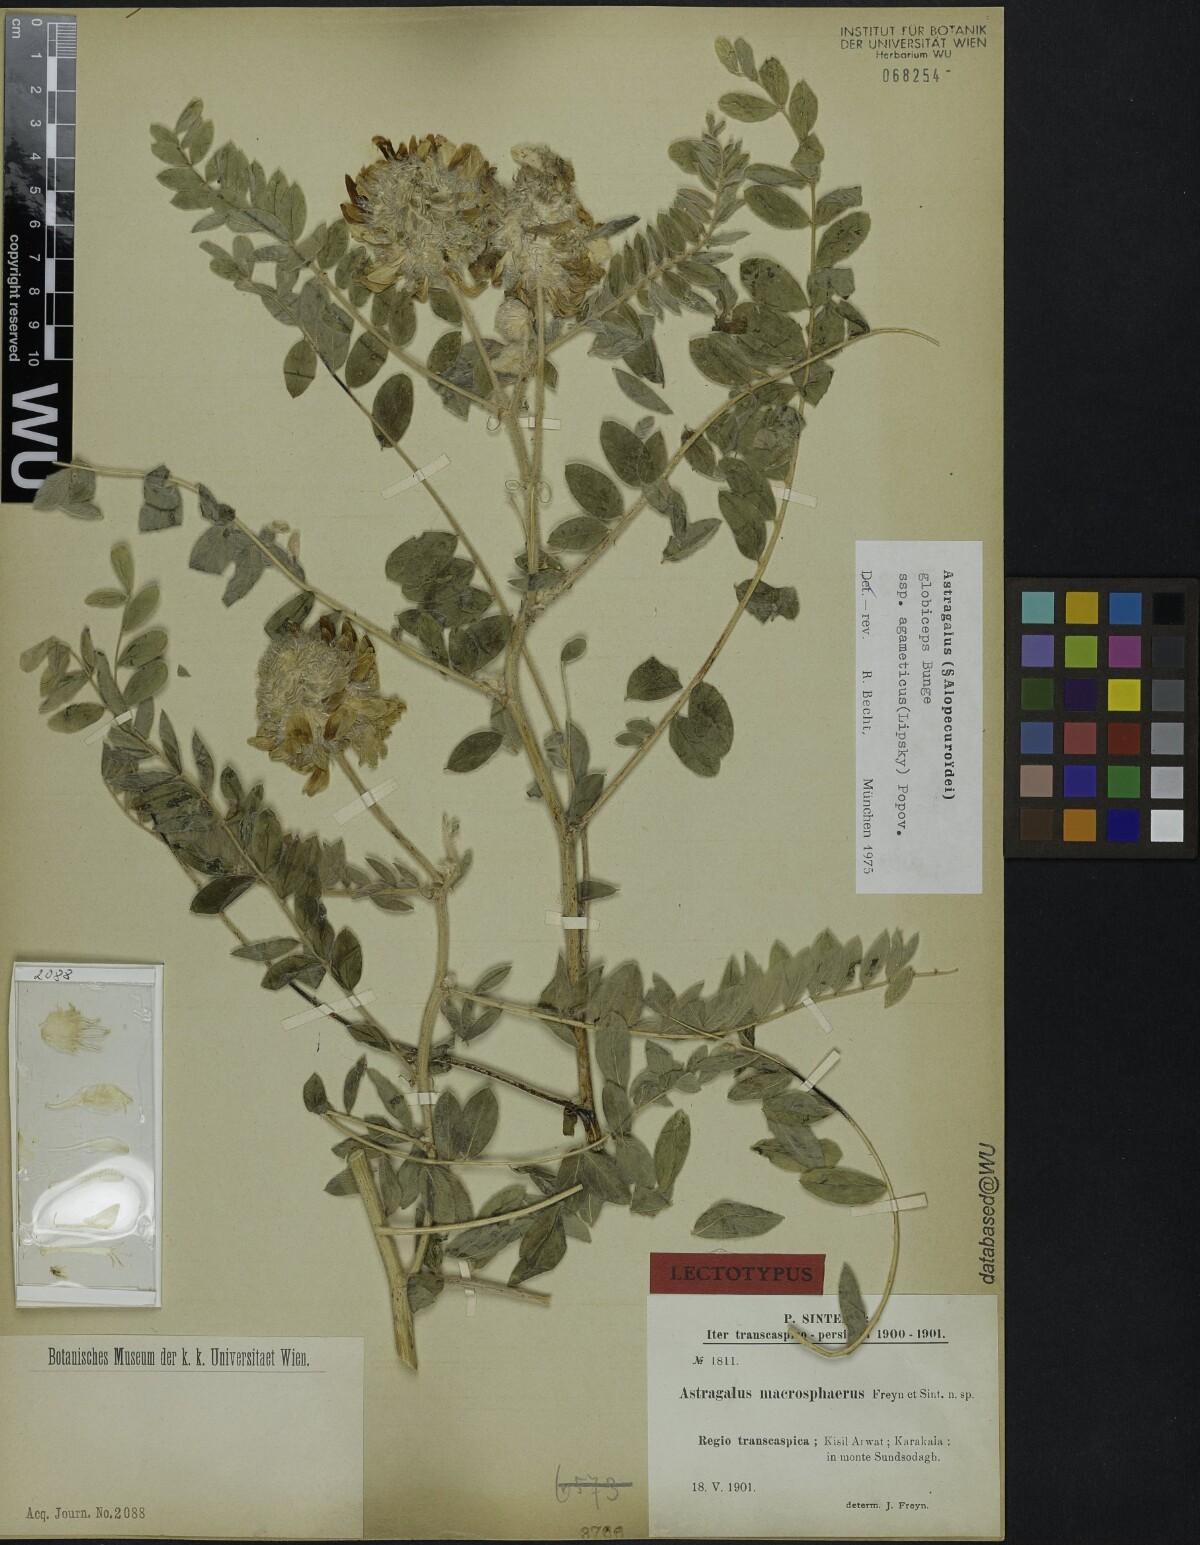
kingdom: Plantae
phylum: Tracheophyta
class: Magnoliopsida
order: Fabales
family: Fabaceae
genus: Astragalus
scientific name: Astragalus globiceps
